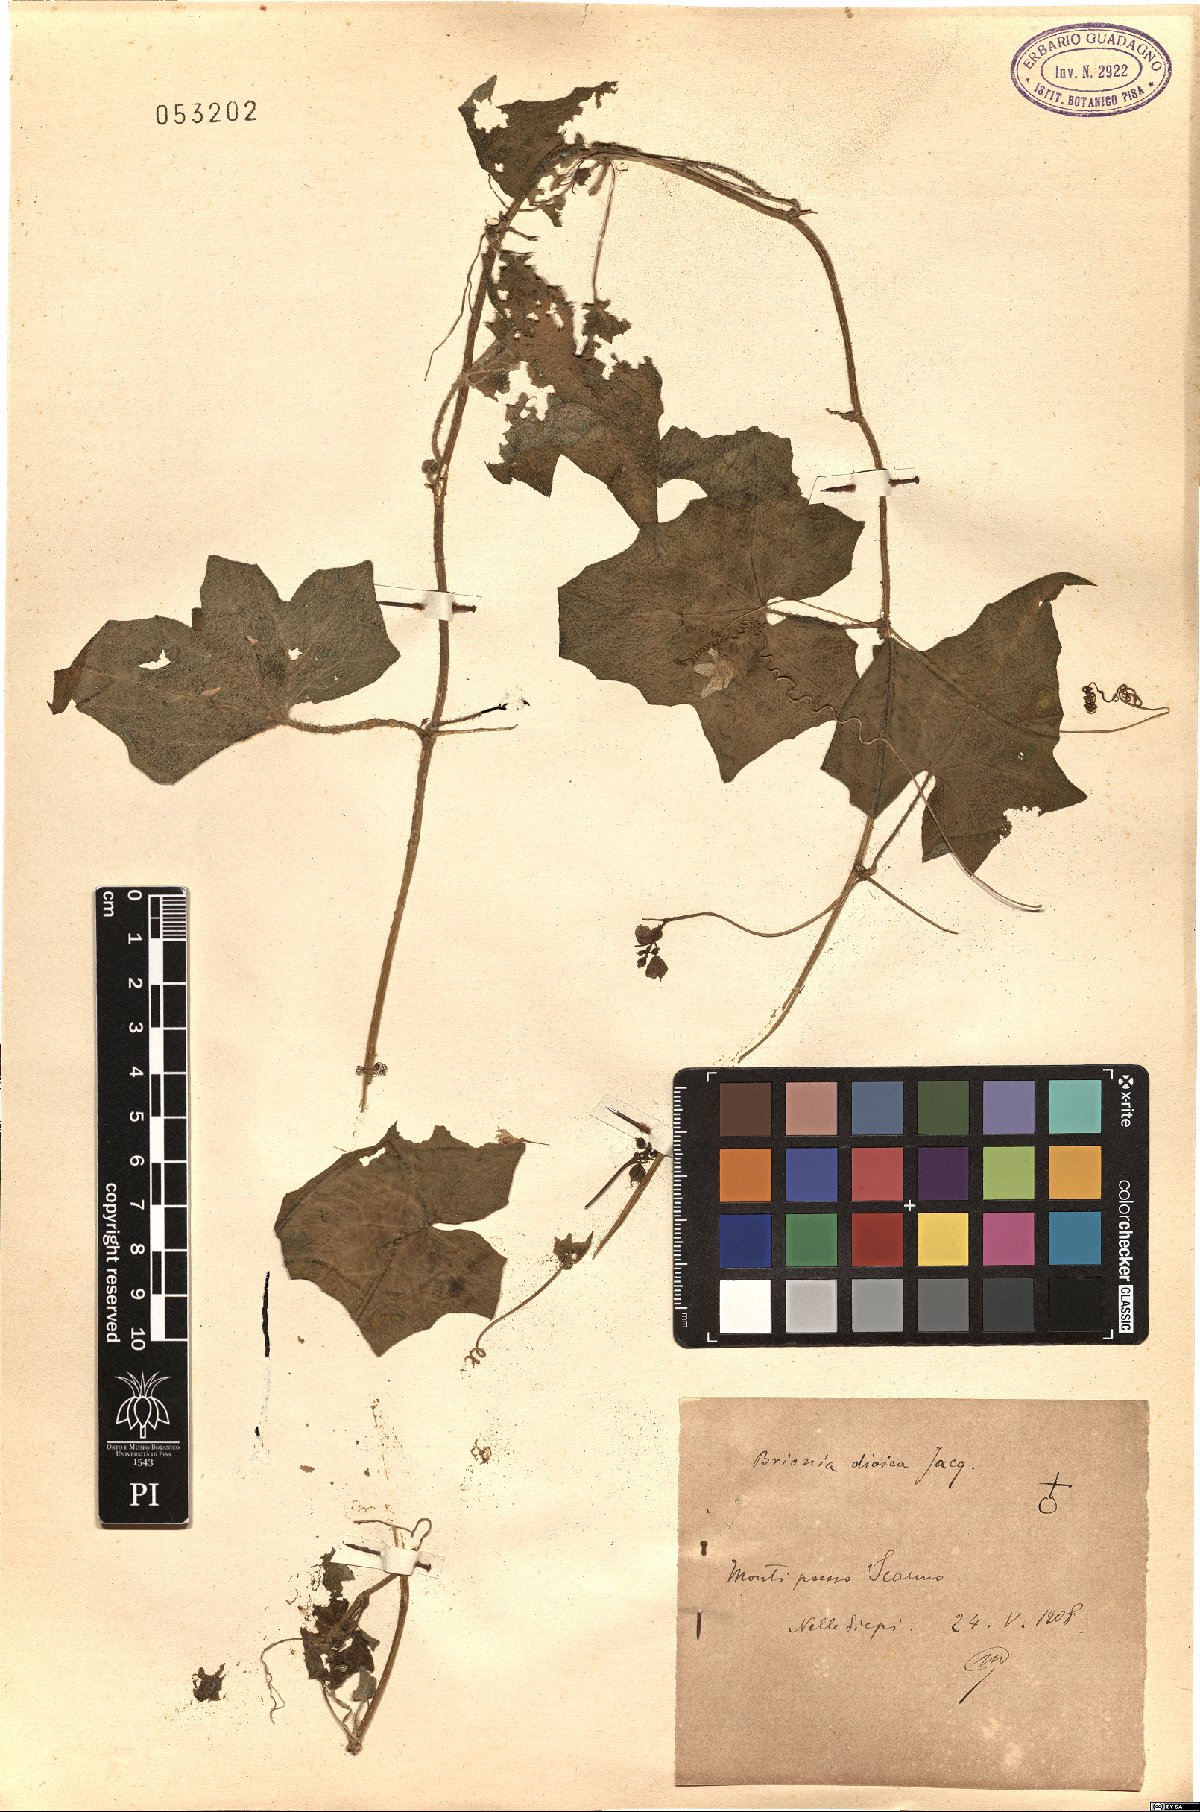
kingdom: Plantae
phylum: Tracheophyta
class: Magnoliopsida
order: Cucurbitales
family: Cucurbitaceae
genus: Bryonia
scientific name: Bryonia dioica
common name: White bryony
